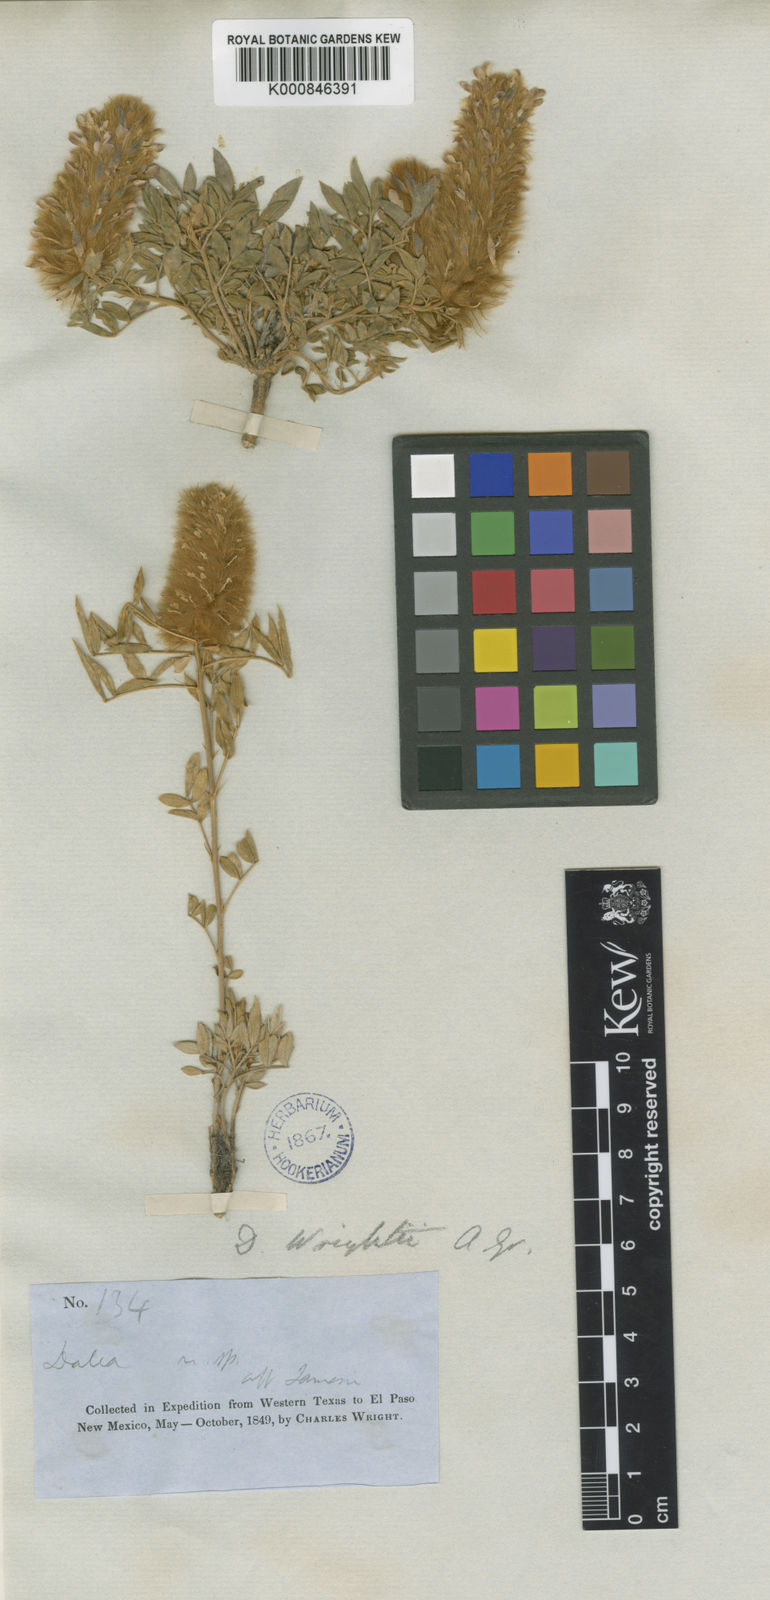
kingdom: Plantae
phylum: Tracheophyta
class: Magnoliopsida
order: Fabales
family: Fabaceae
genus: Dalea
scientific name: Dalea wrightii
